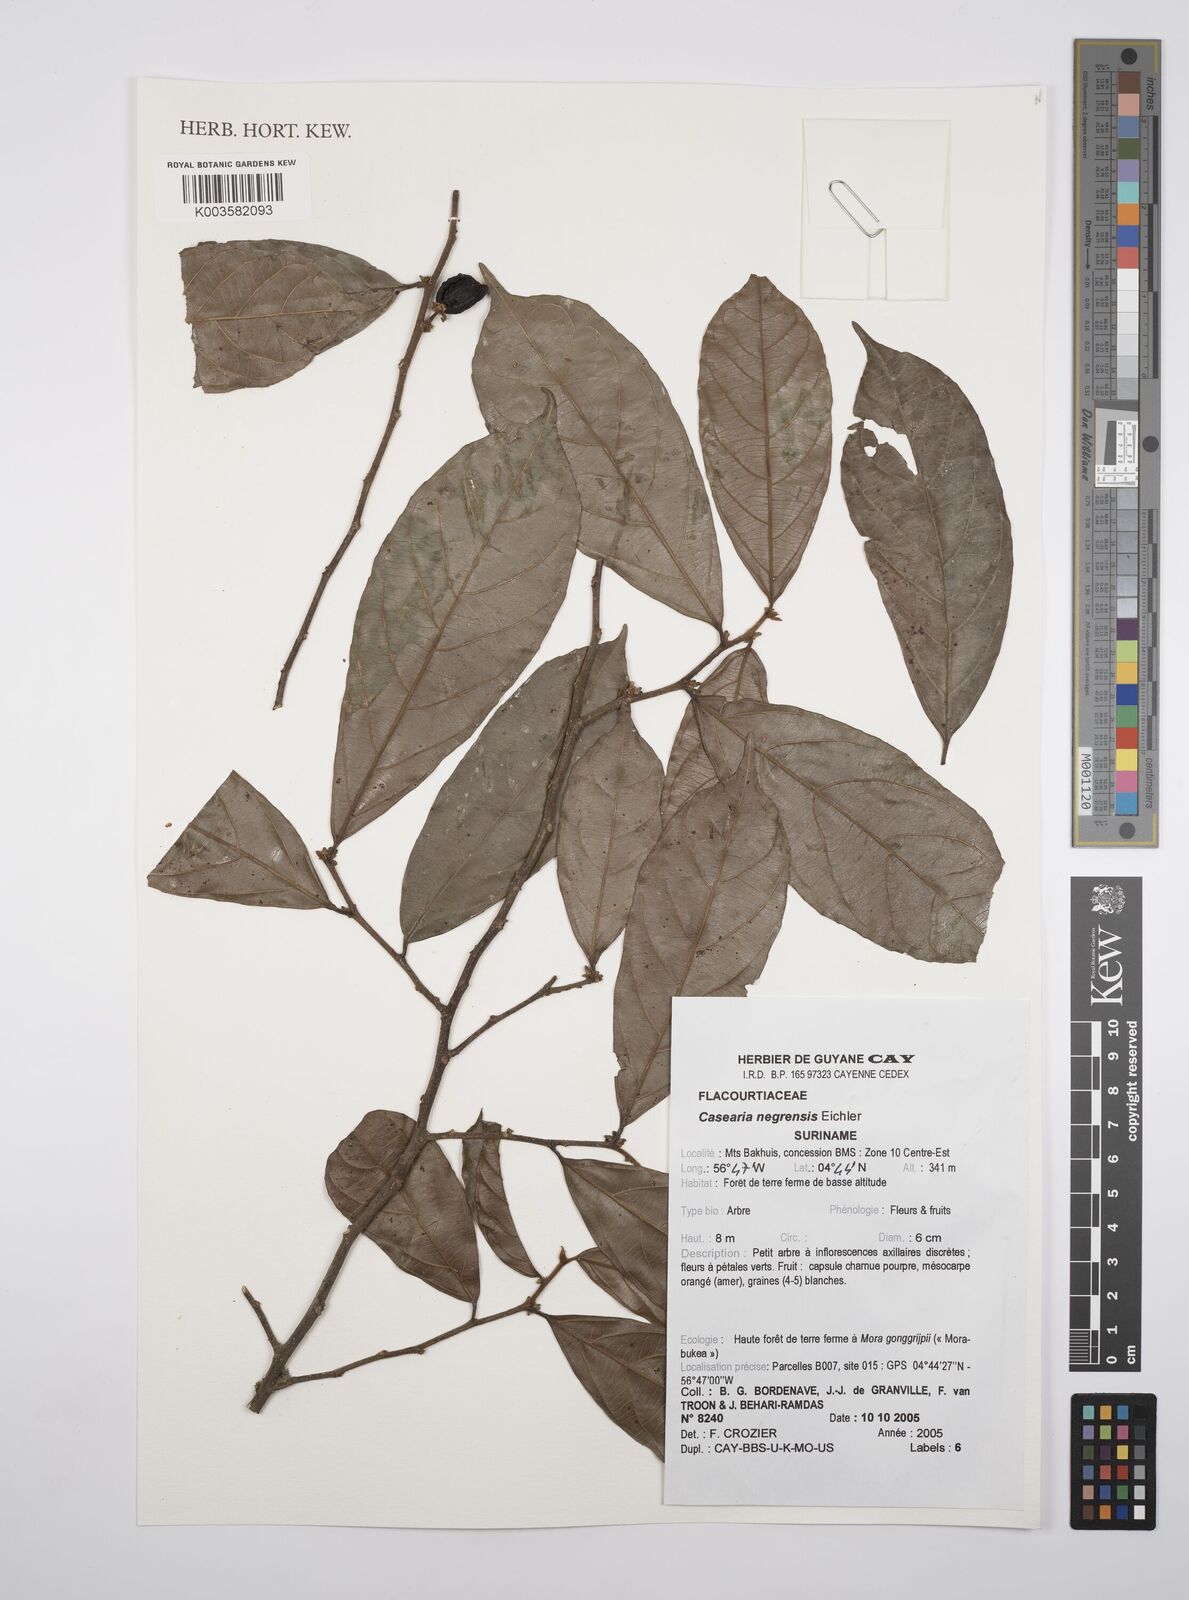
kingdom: Plantae
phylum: Tracheophyta
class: Magnoliopsida
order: Malpighiales
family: Salicaceae
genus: Casearia
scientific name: Casearia negrensis
